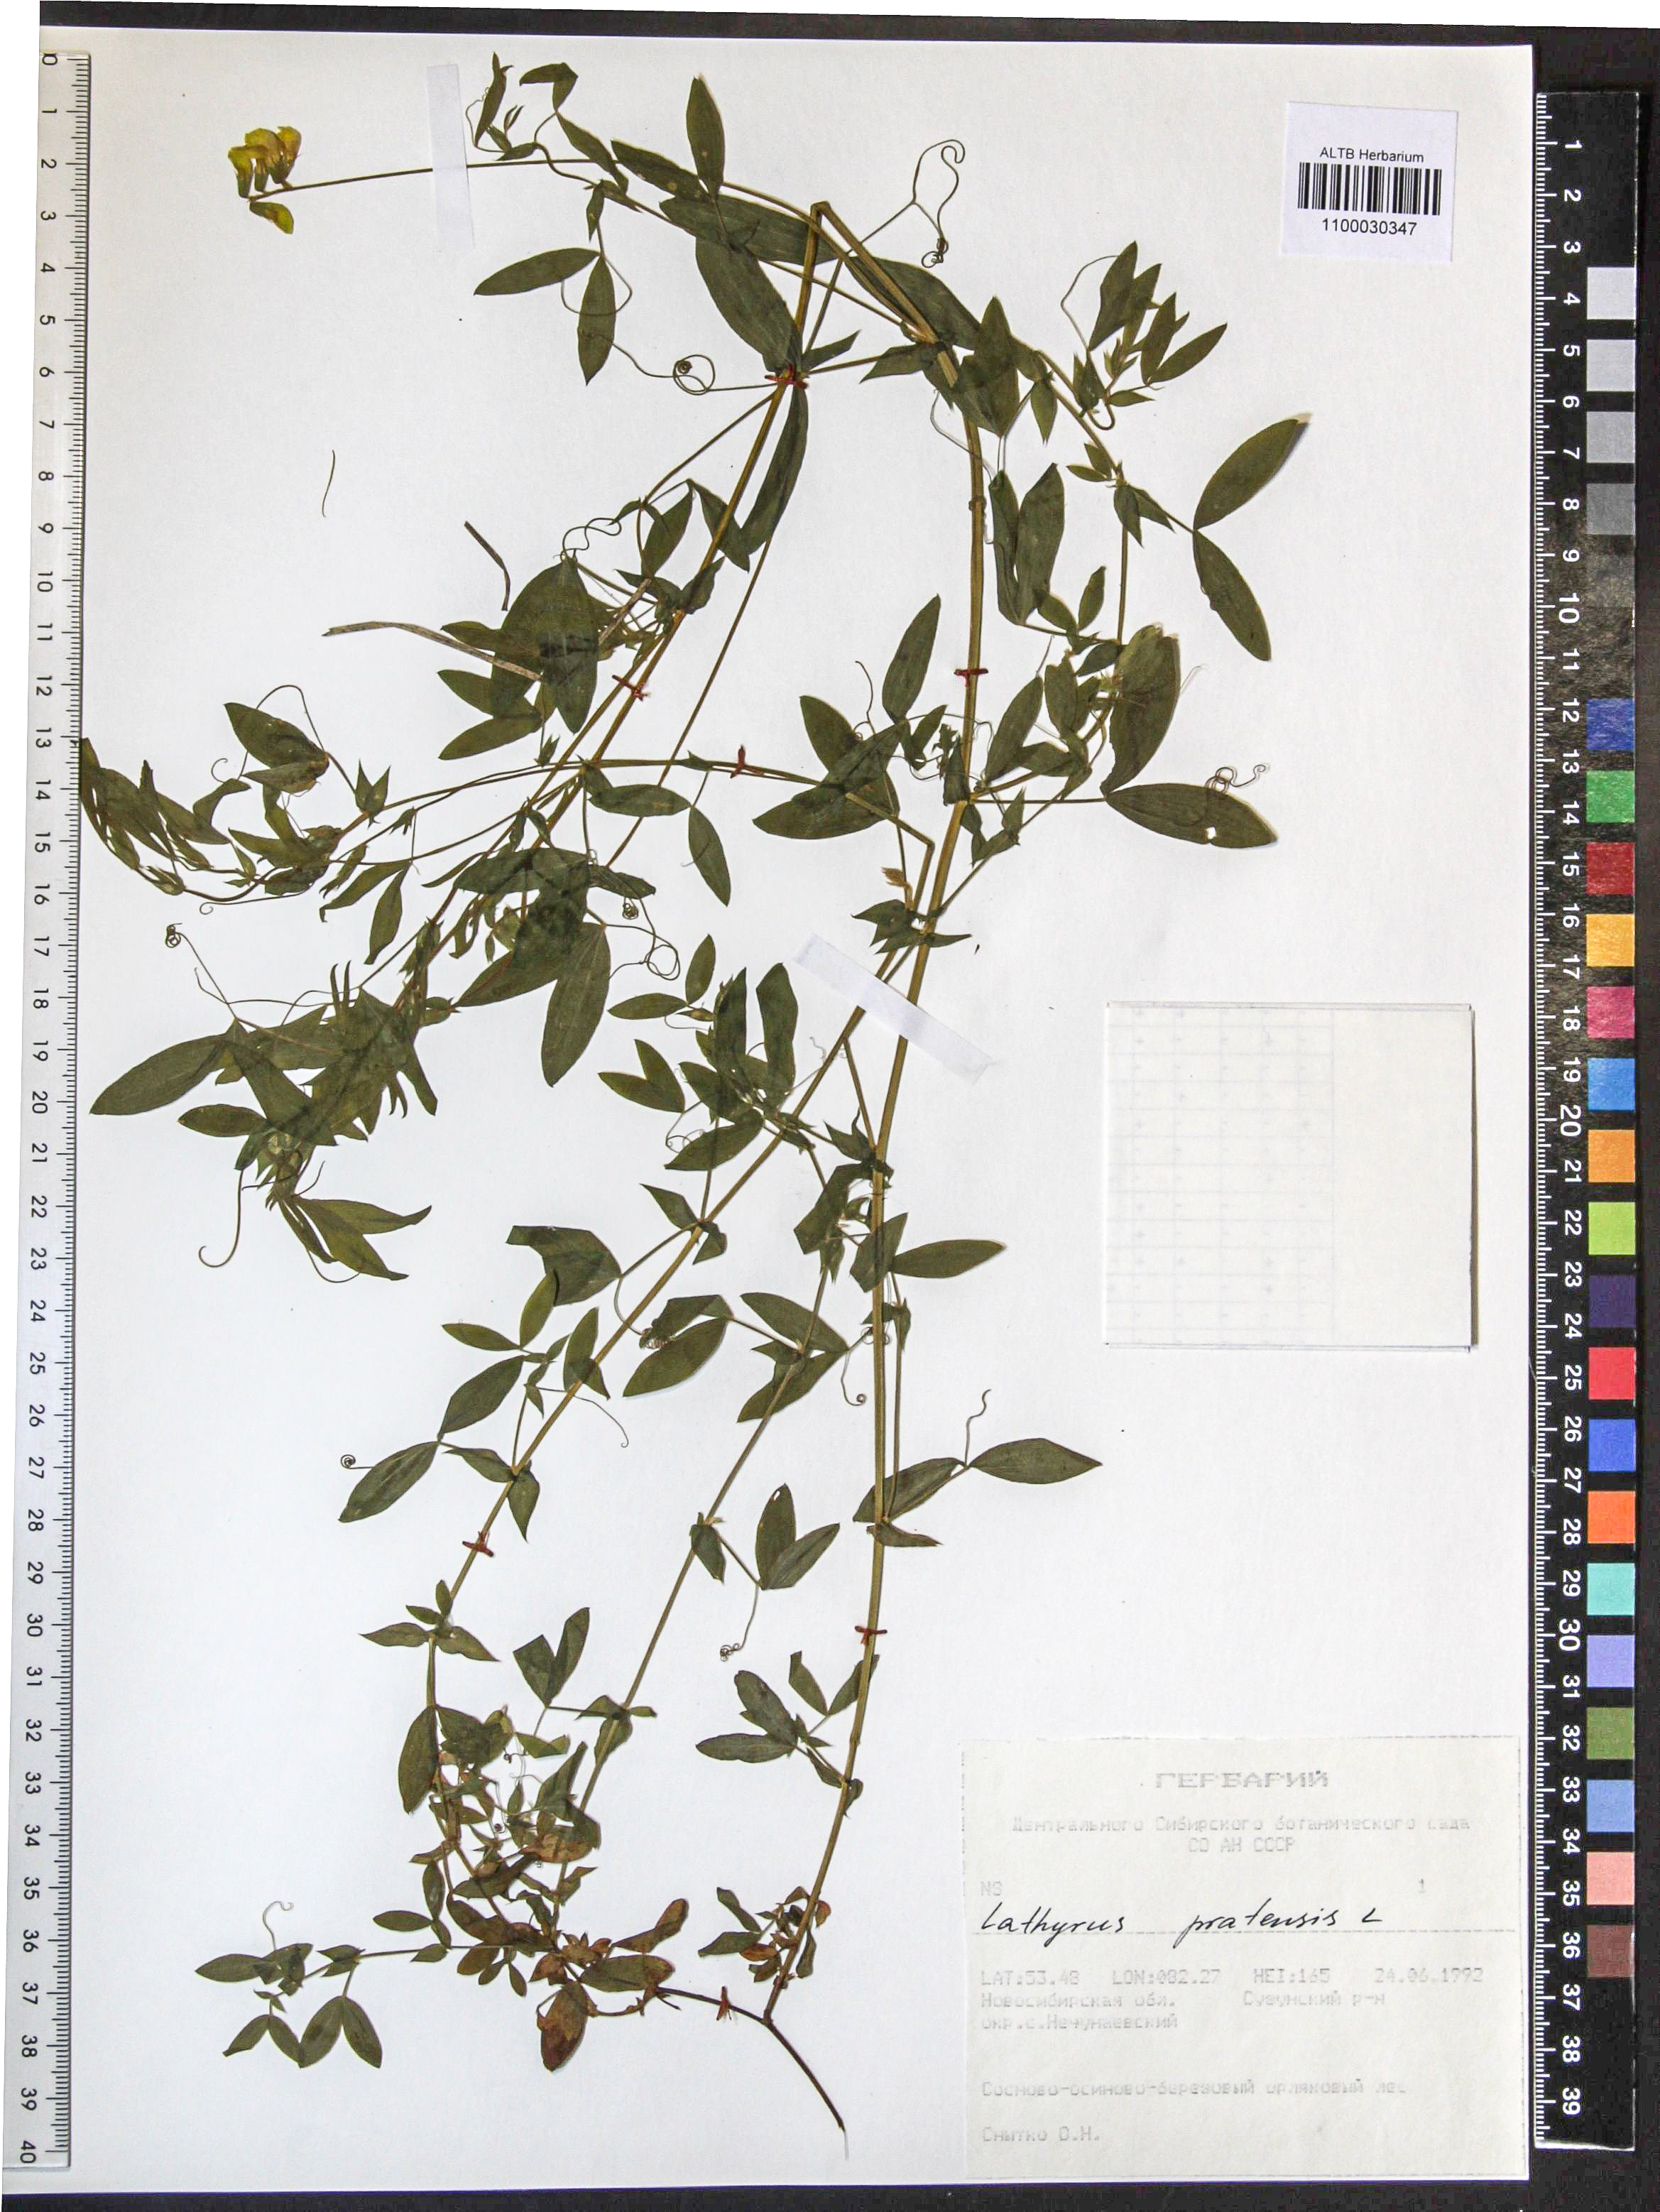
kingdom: Plantae
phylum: Tracheophyta
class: Magnoliopsida
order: Fabales
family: Fabaceae
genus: Lathyrus
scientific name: Lathyrus pratensis
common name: Meadow vetchling
